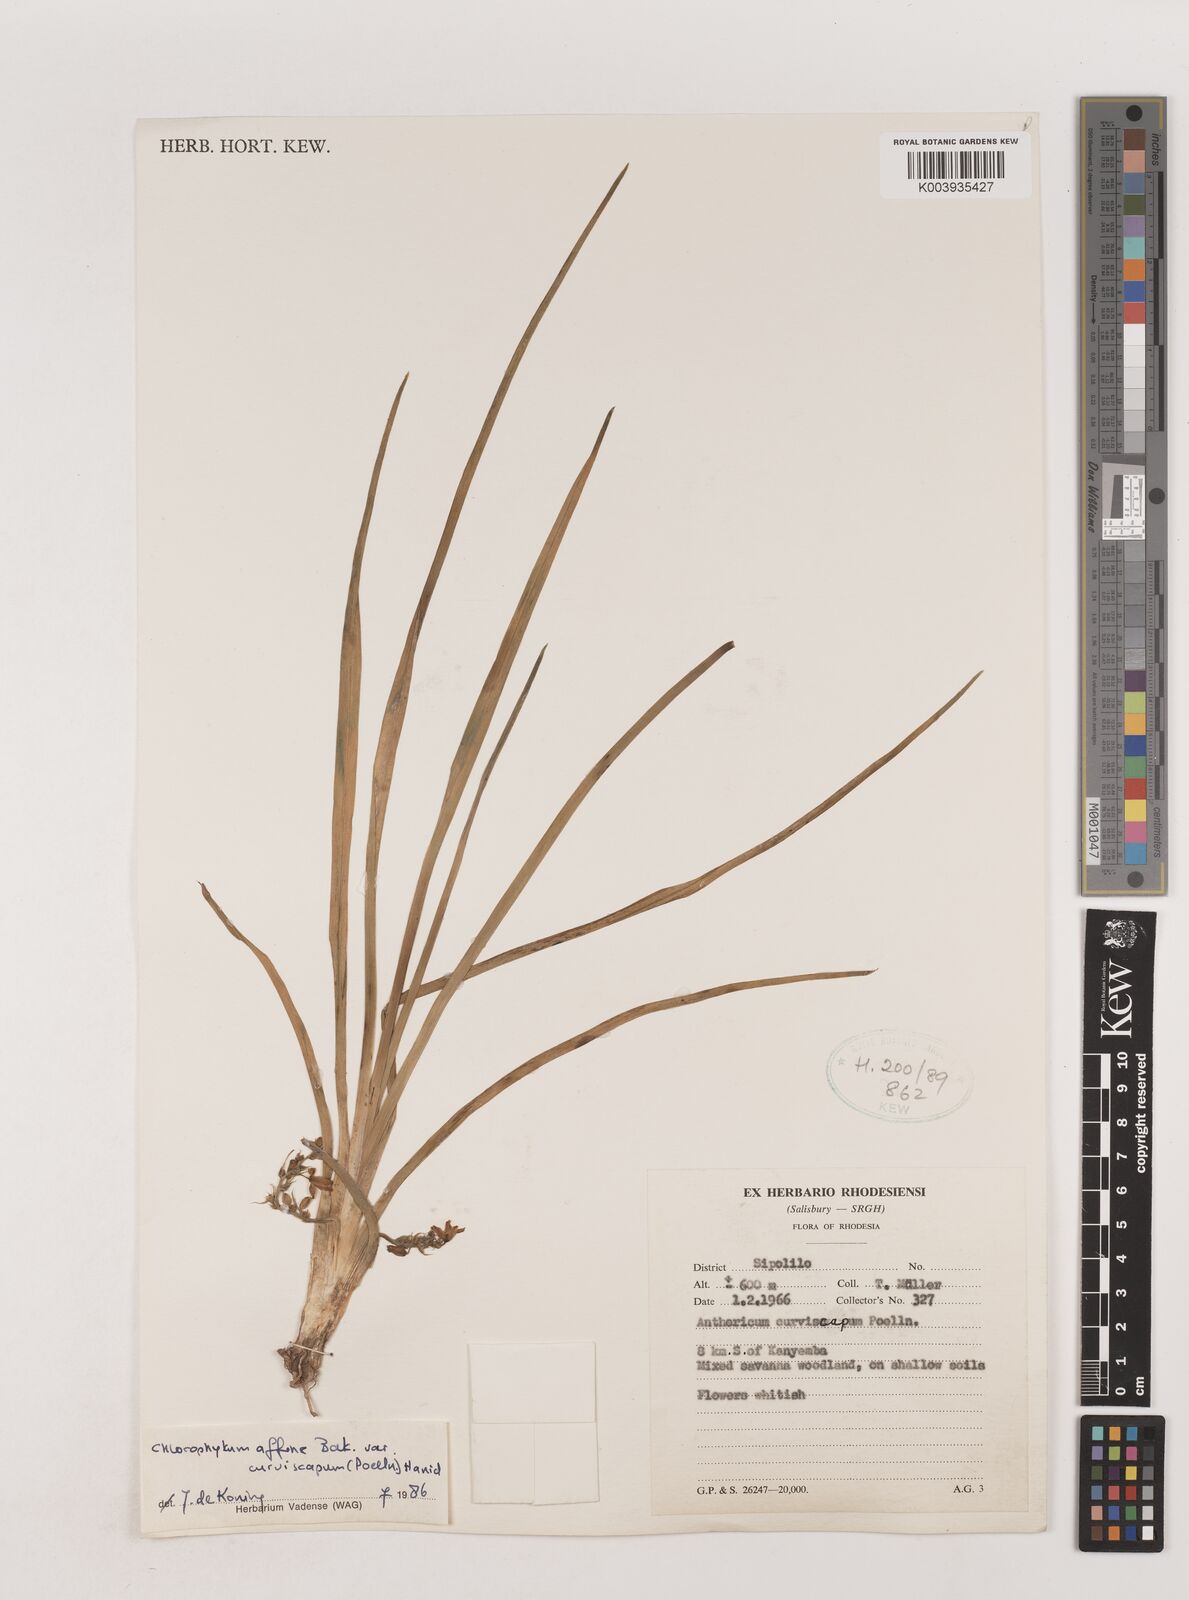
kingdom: Plantae
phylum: Tracheophyta
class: Liliopsida
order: Asparagales
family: Asparagaceae
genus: Chlorophytum
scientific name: Chlorophytum tordense
